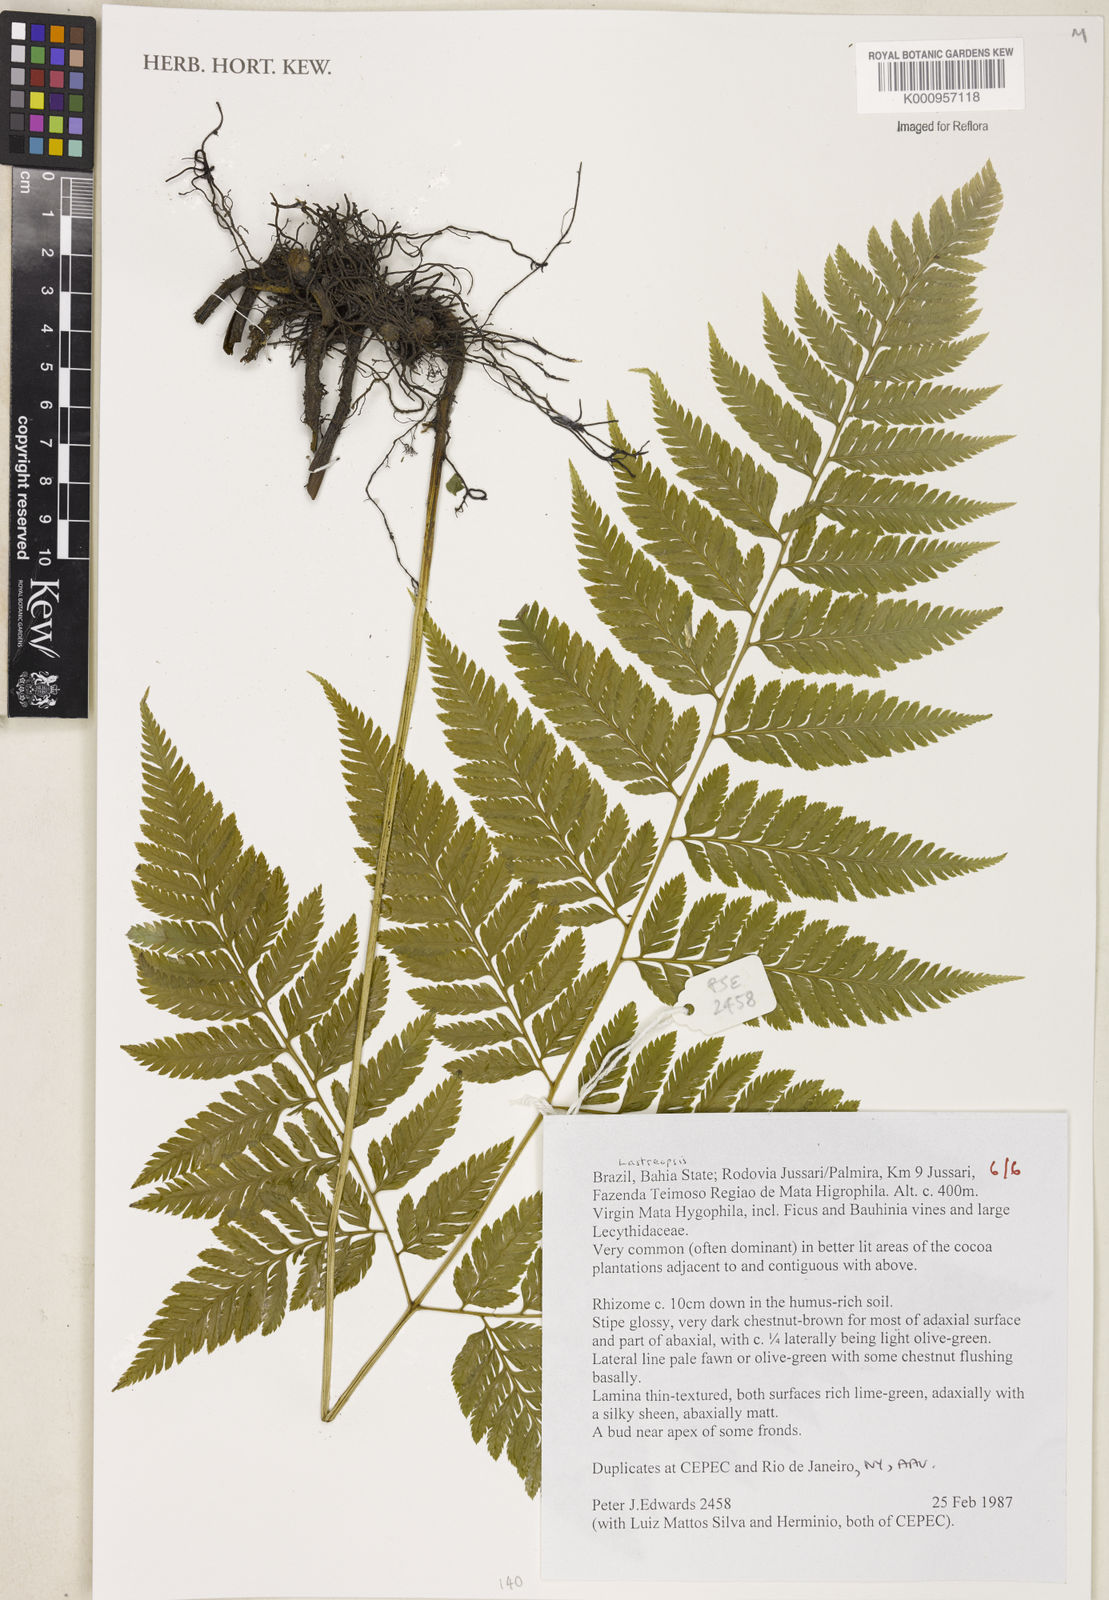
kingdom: Plantae
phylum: Tracheophyta
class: Polypodiopsida
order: Polypodiales
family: Dryopteridaceae
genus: Lastreopsis
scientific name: Lastreopsis
